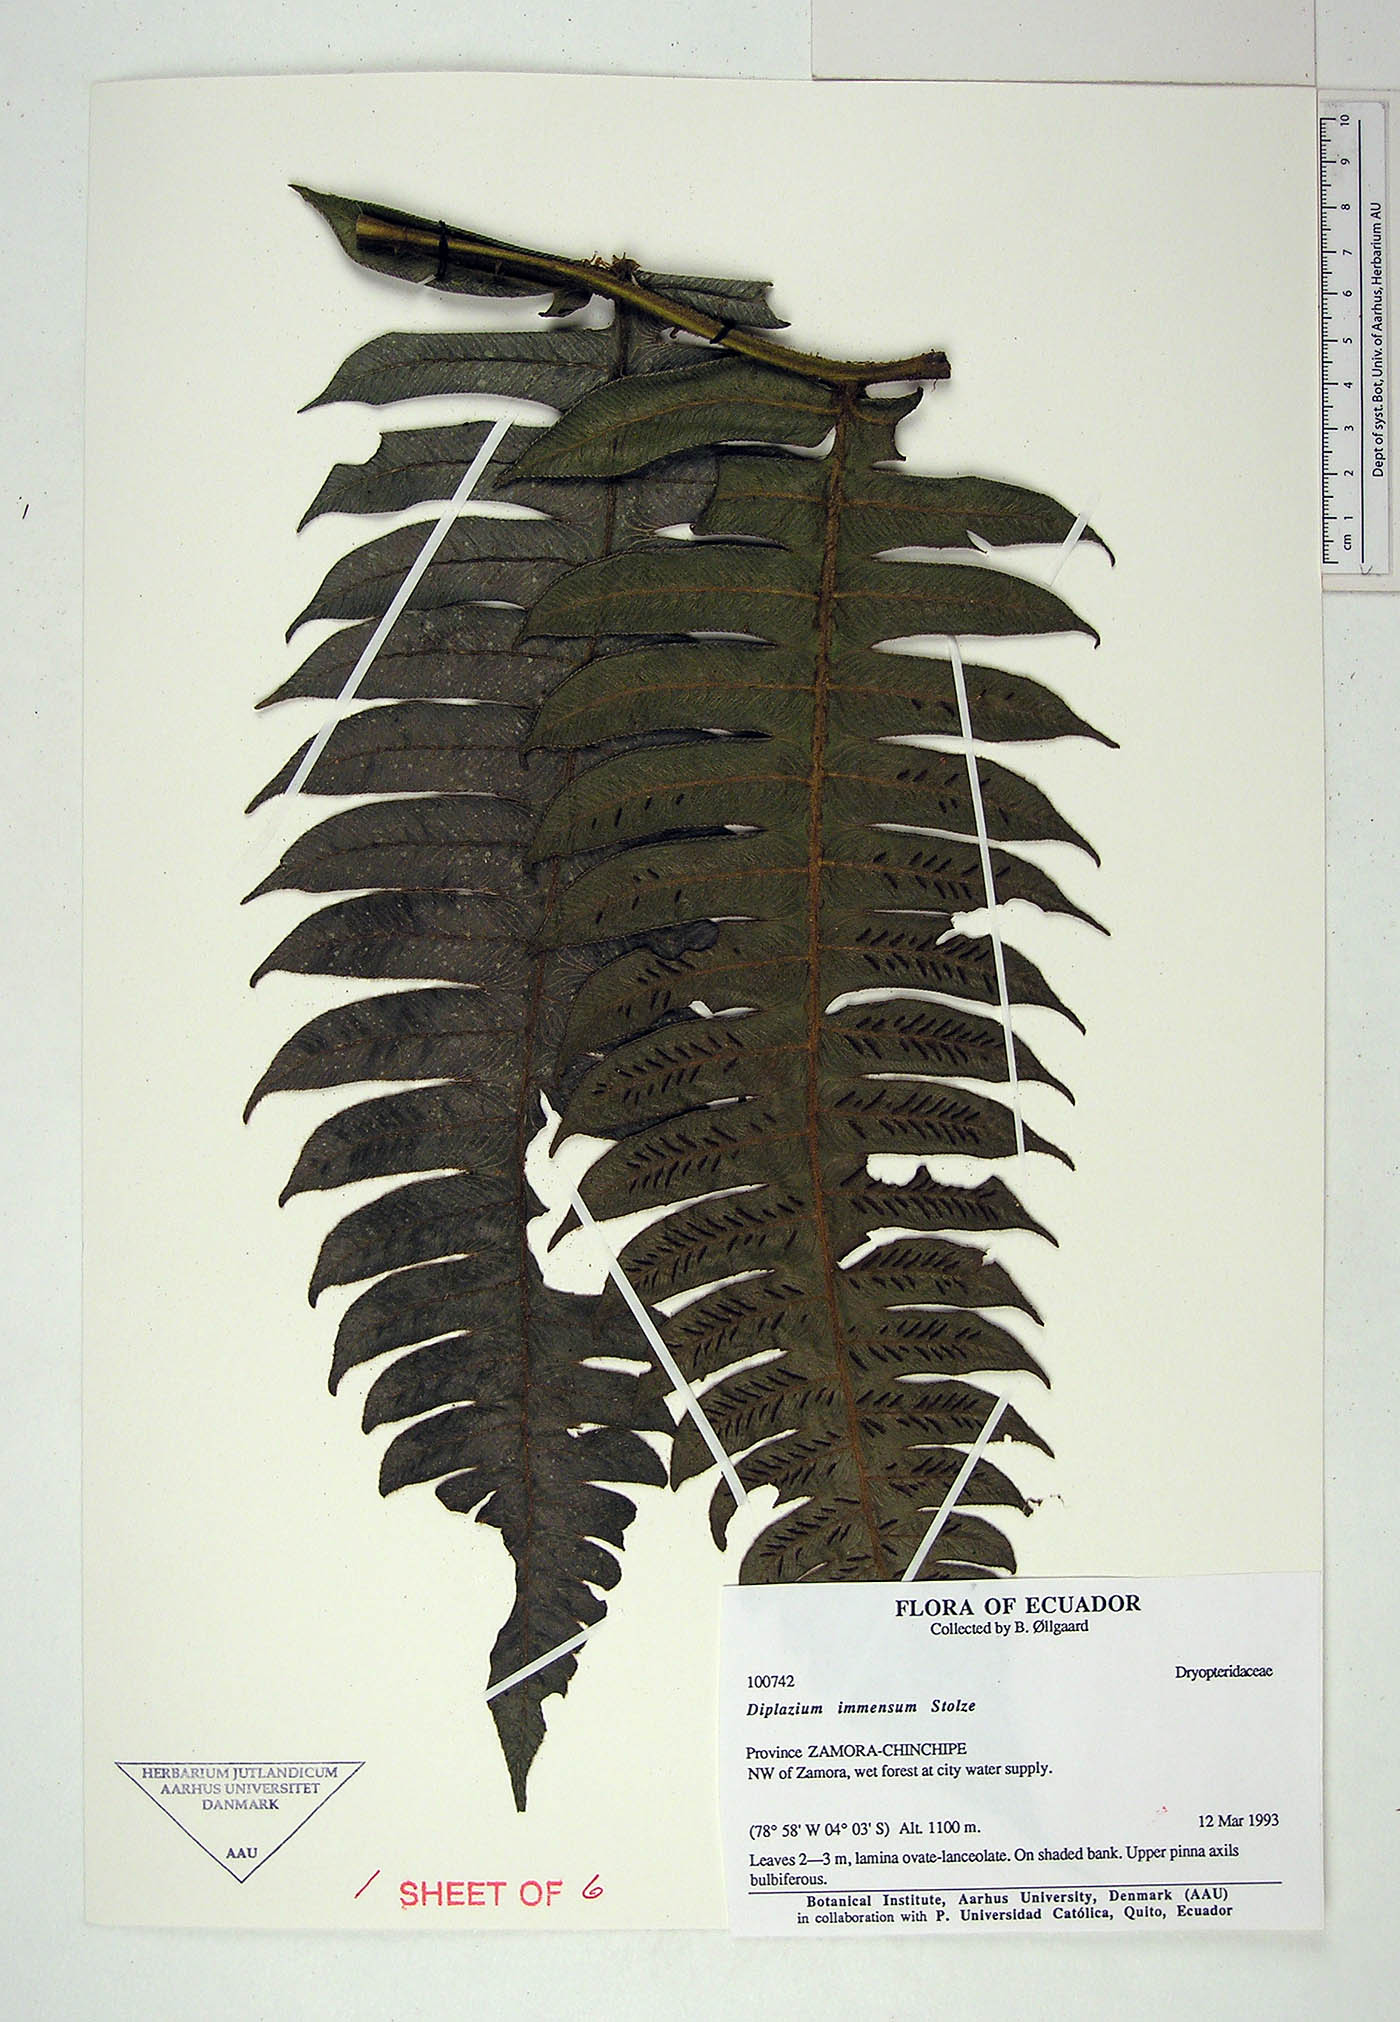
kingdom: Plantae
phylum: Tracheophyta
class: Polypodiopsida
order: Polypodiales
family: Athyriaceae
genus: Diplazium
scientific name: Diplazium immensum
